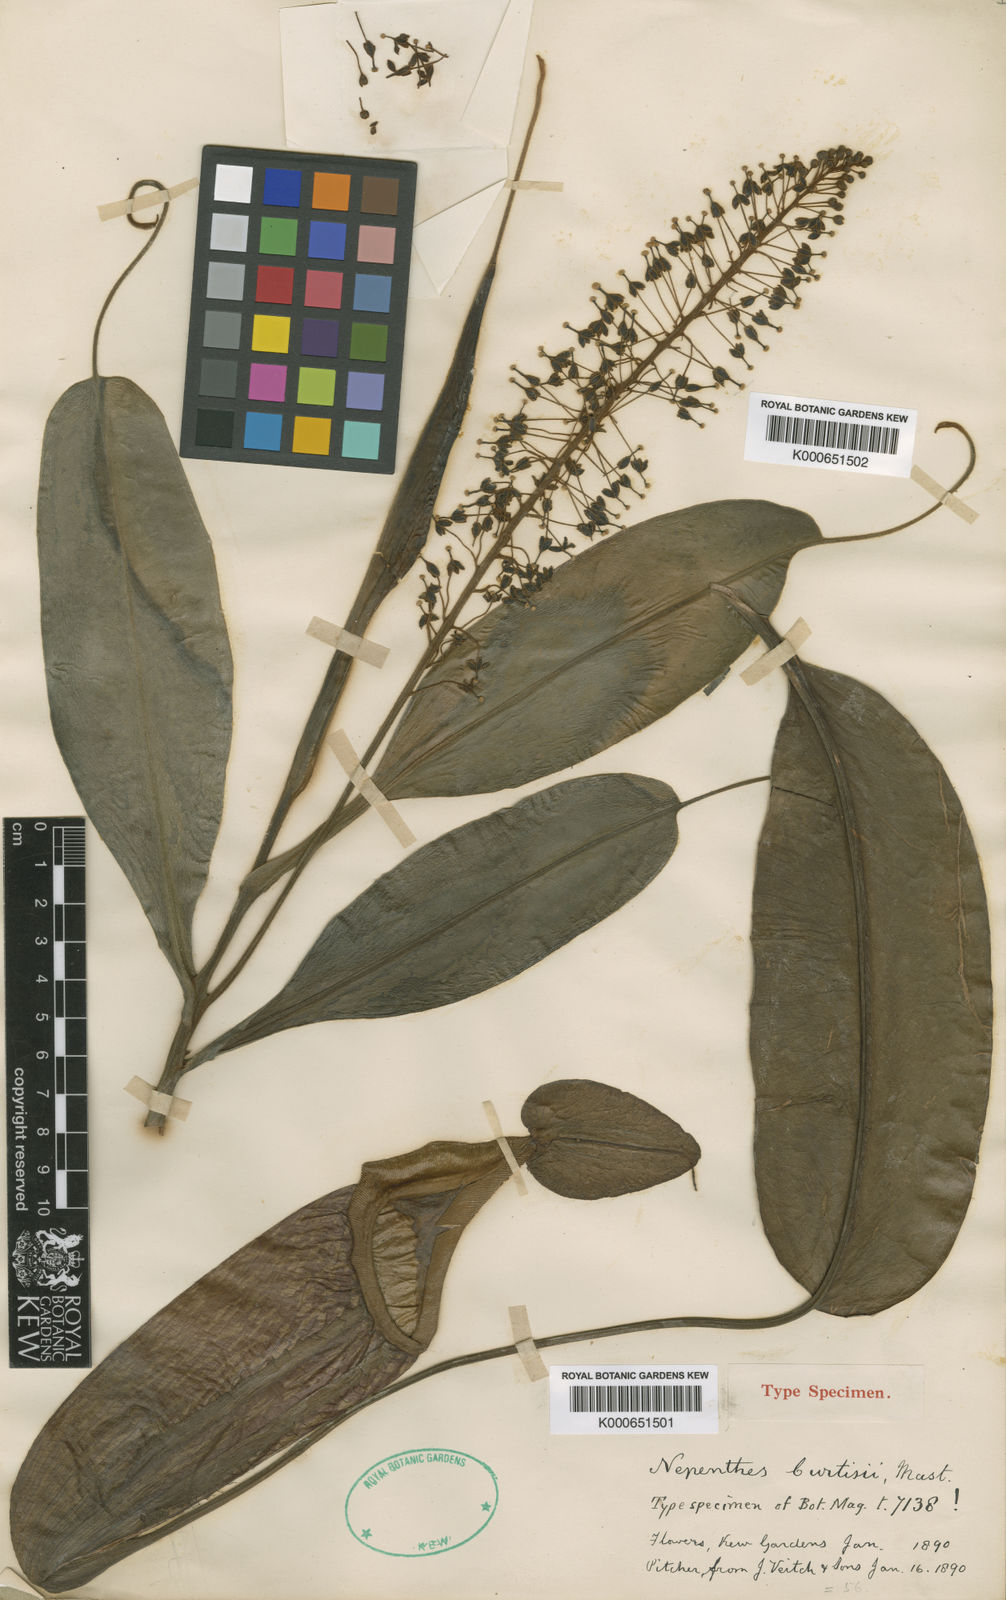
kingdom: Plantae
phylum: Tracheophyta
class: Magnoliopsida
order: Caryophyllales
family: Nepenthaceae
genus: Nepenthes
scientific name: Nepenthes maxima
